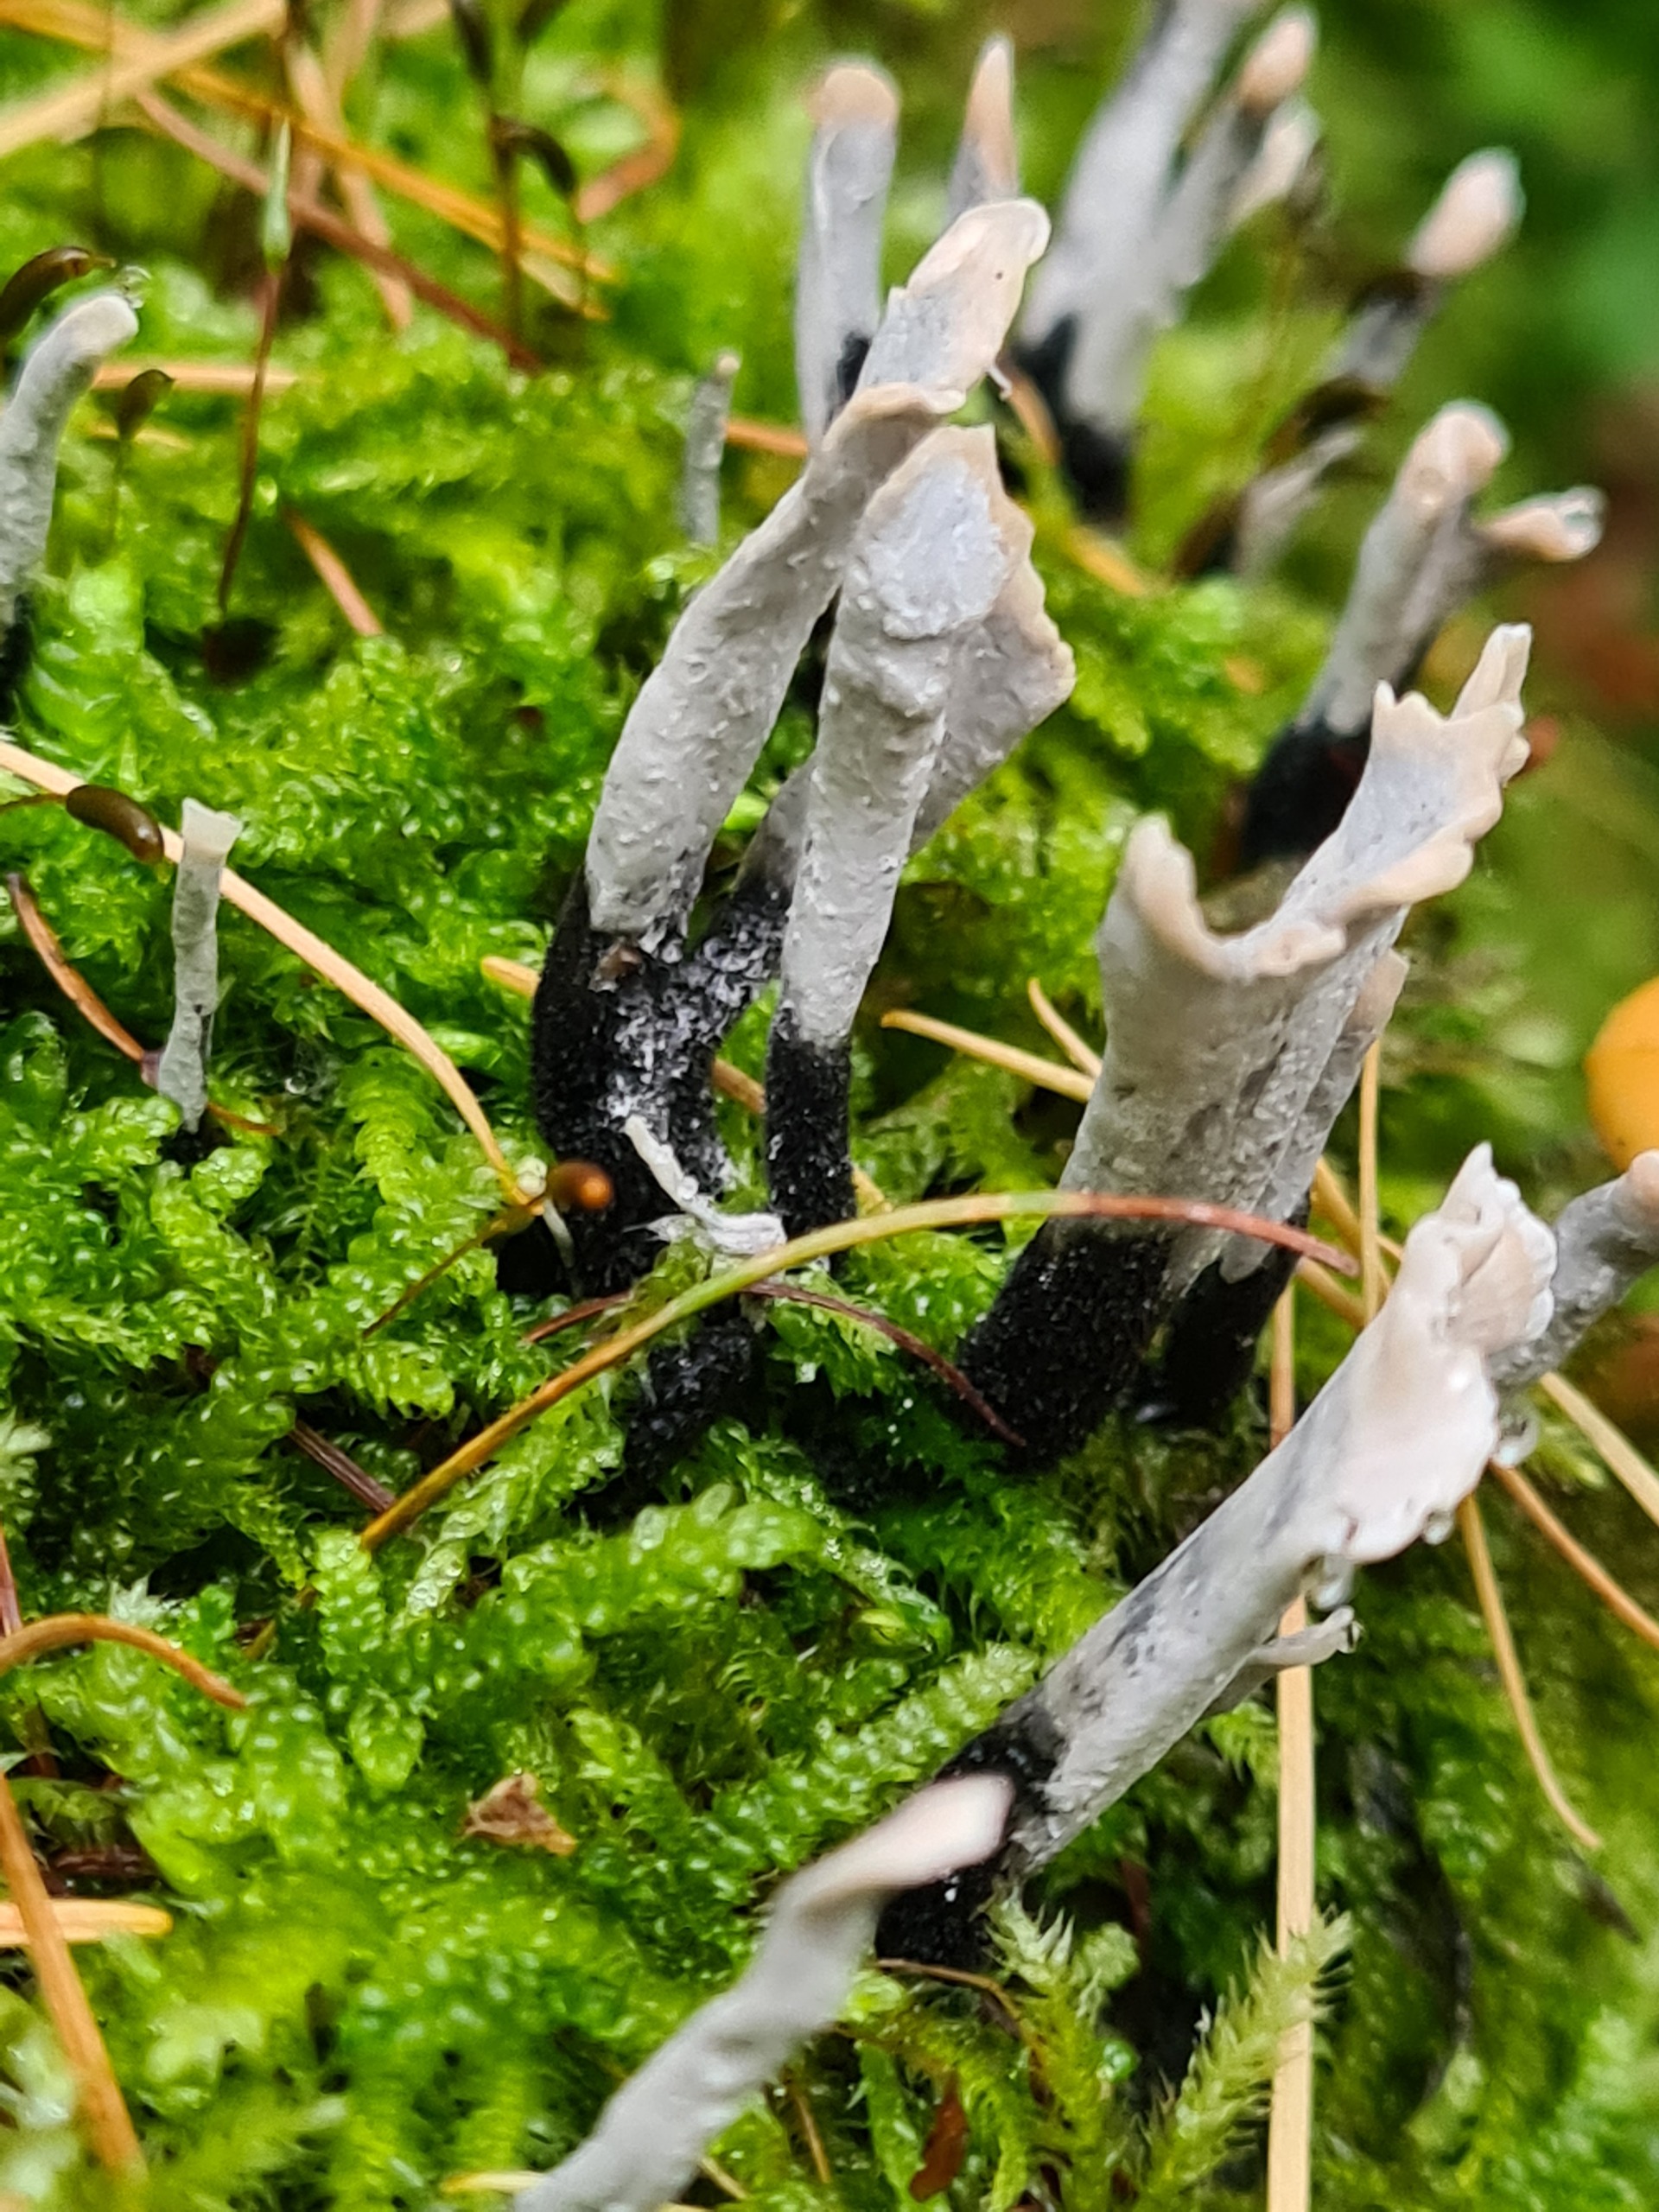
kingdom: Fungi
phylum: Ascomycota
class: Sordariomycetes
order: Xylariales
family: Xylariaceae
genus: Xylaria
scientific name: Xylaria hypoxylon
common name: Grenet stødsvamp
